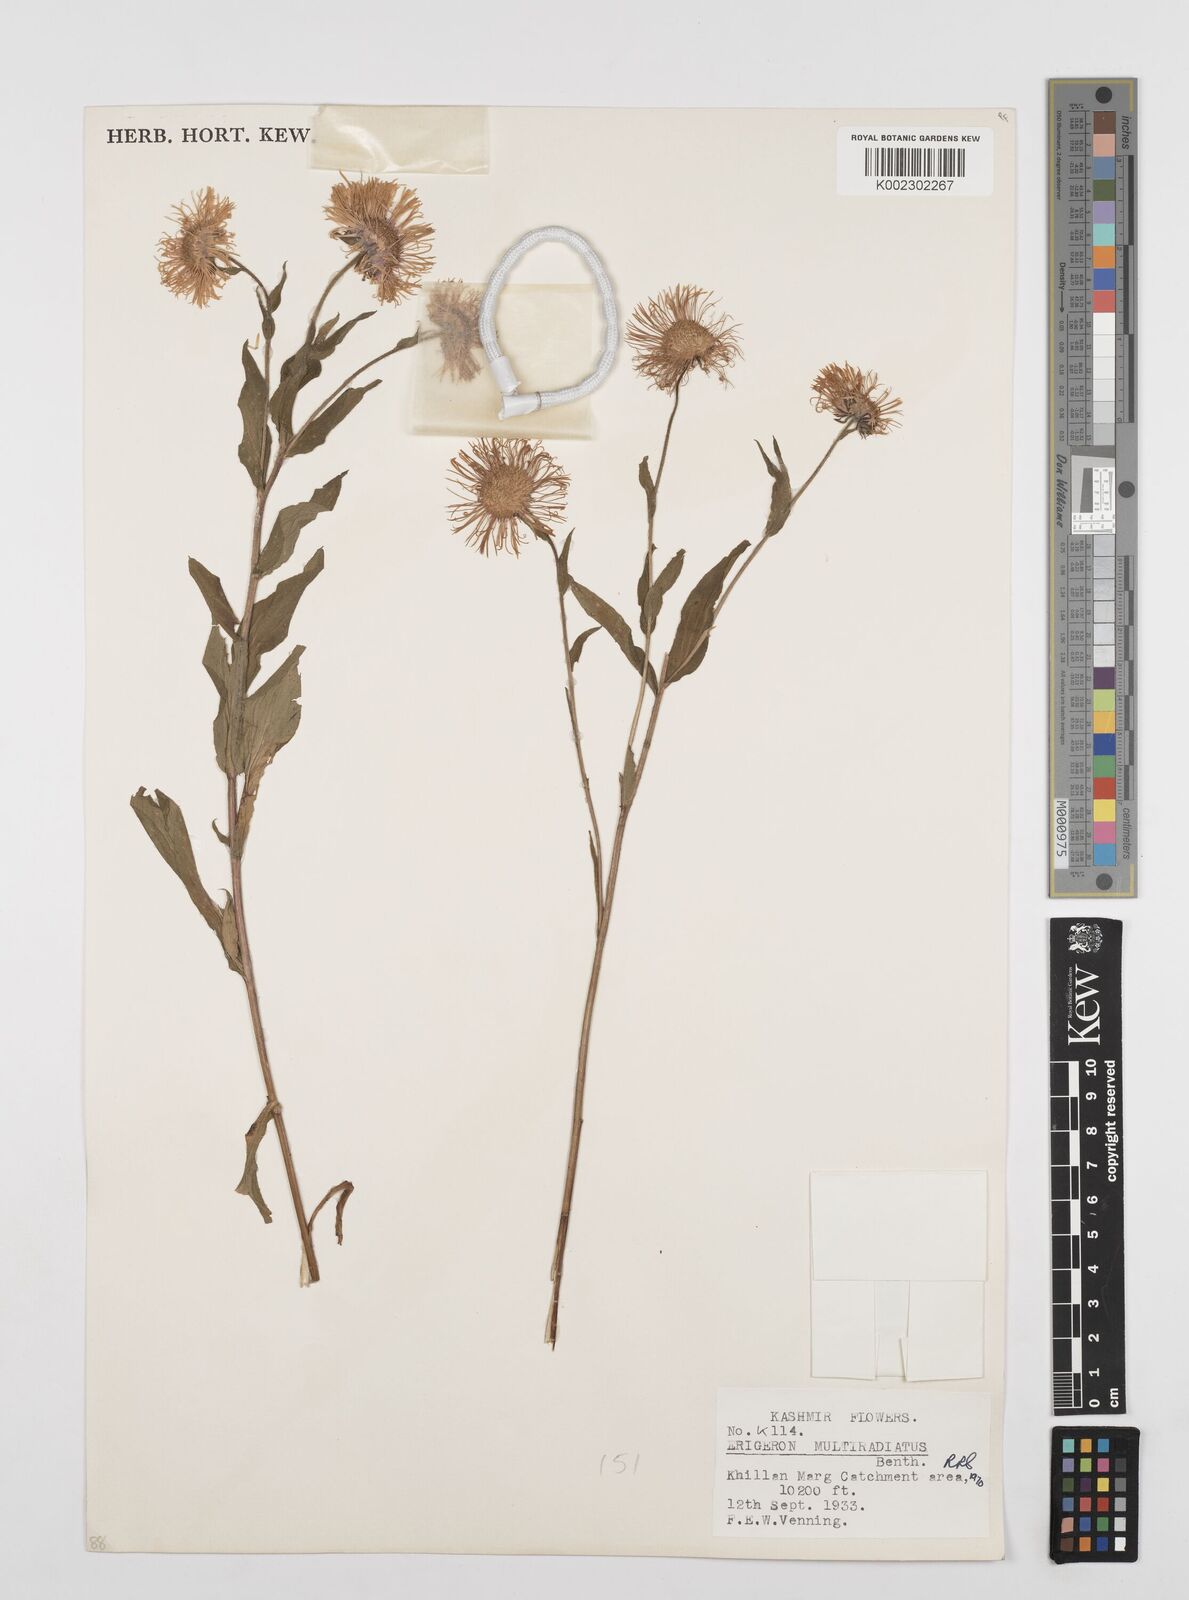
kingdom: Plantae
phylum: Tracheophyta
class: Magnoliopsida
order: Asterales
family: Asteraceae
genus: Erigeron
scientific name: Erigeron multiradiatus
